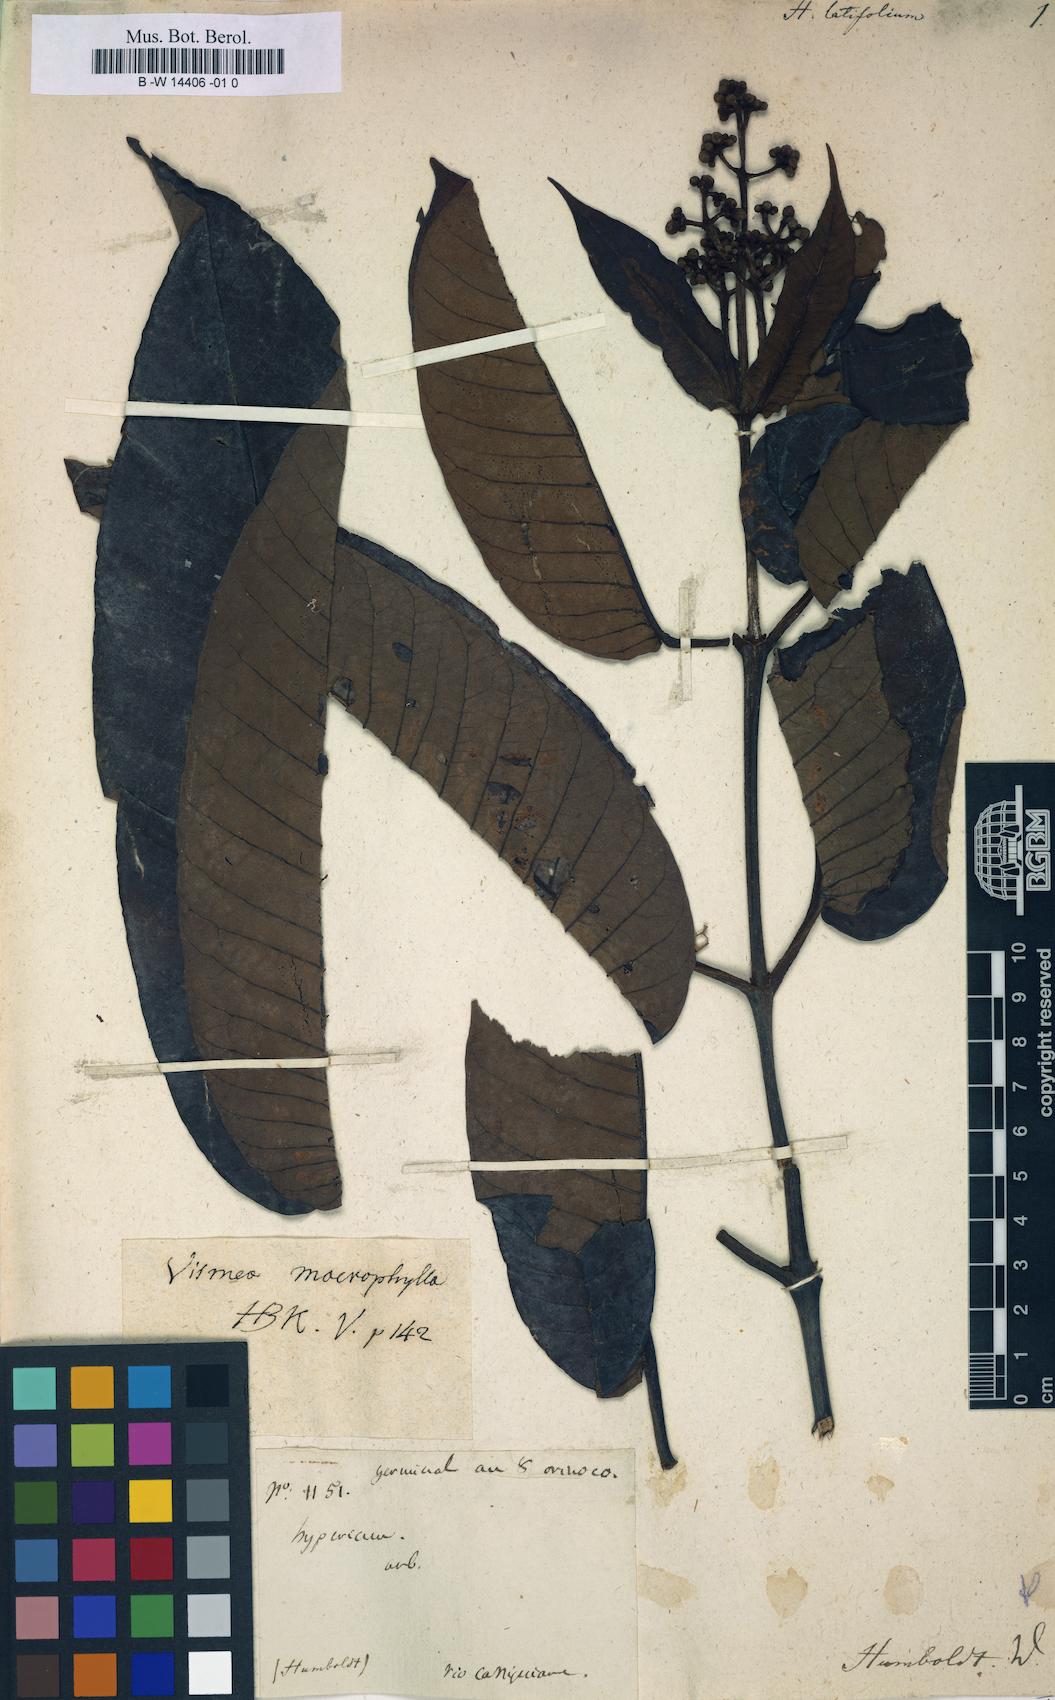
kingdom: Plantae
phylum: Tracheophyta
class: Magnoliopsida
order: Malpighiales
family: Hypericaceae
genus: Vismia
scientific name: Vismia latifolia
